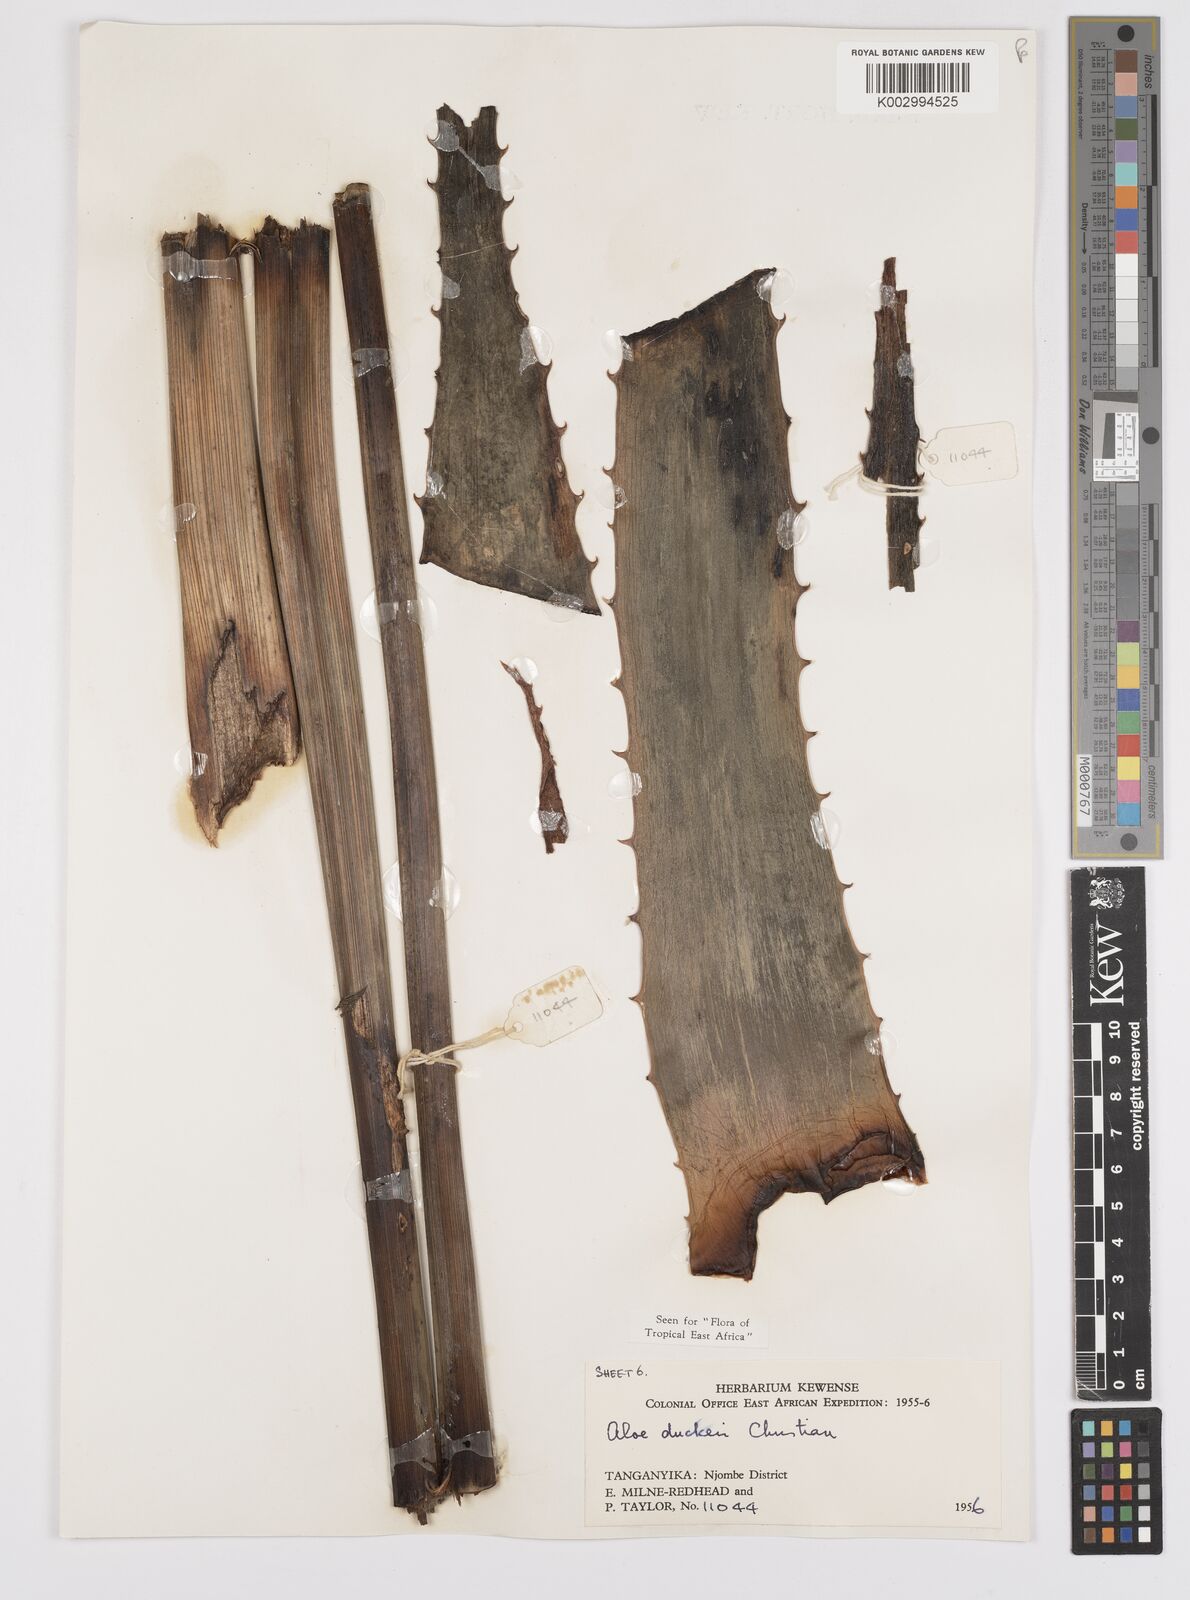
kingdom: Plantae
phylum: Tracheophyta
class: Liliopsida
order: Asparagales
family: Asphodelaceae
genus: Aloe
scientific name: Aloe duckeri
